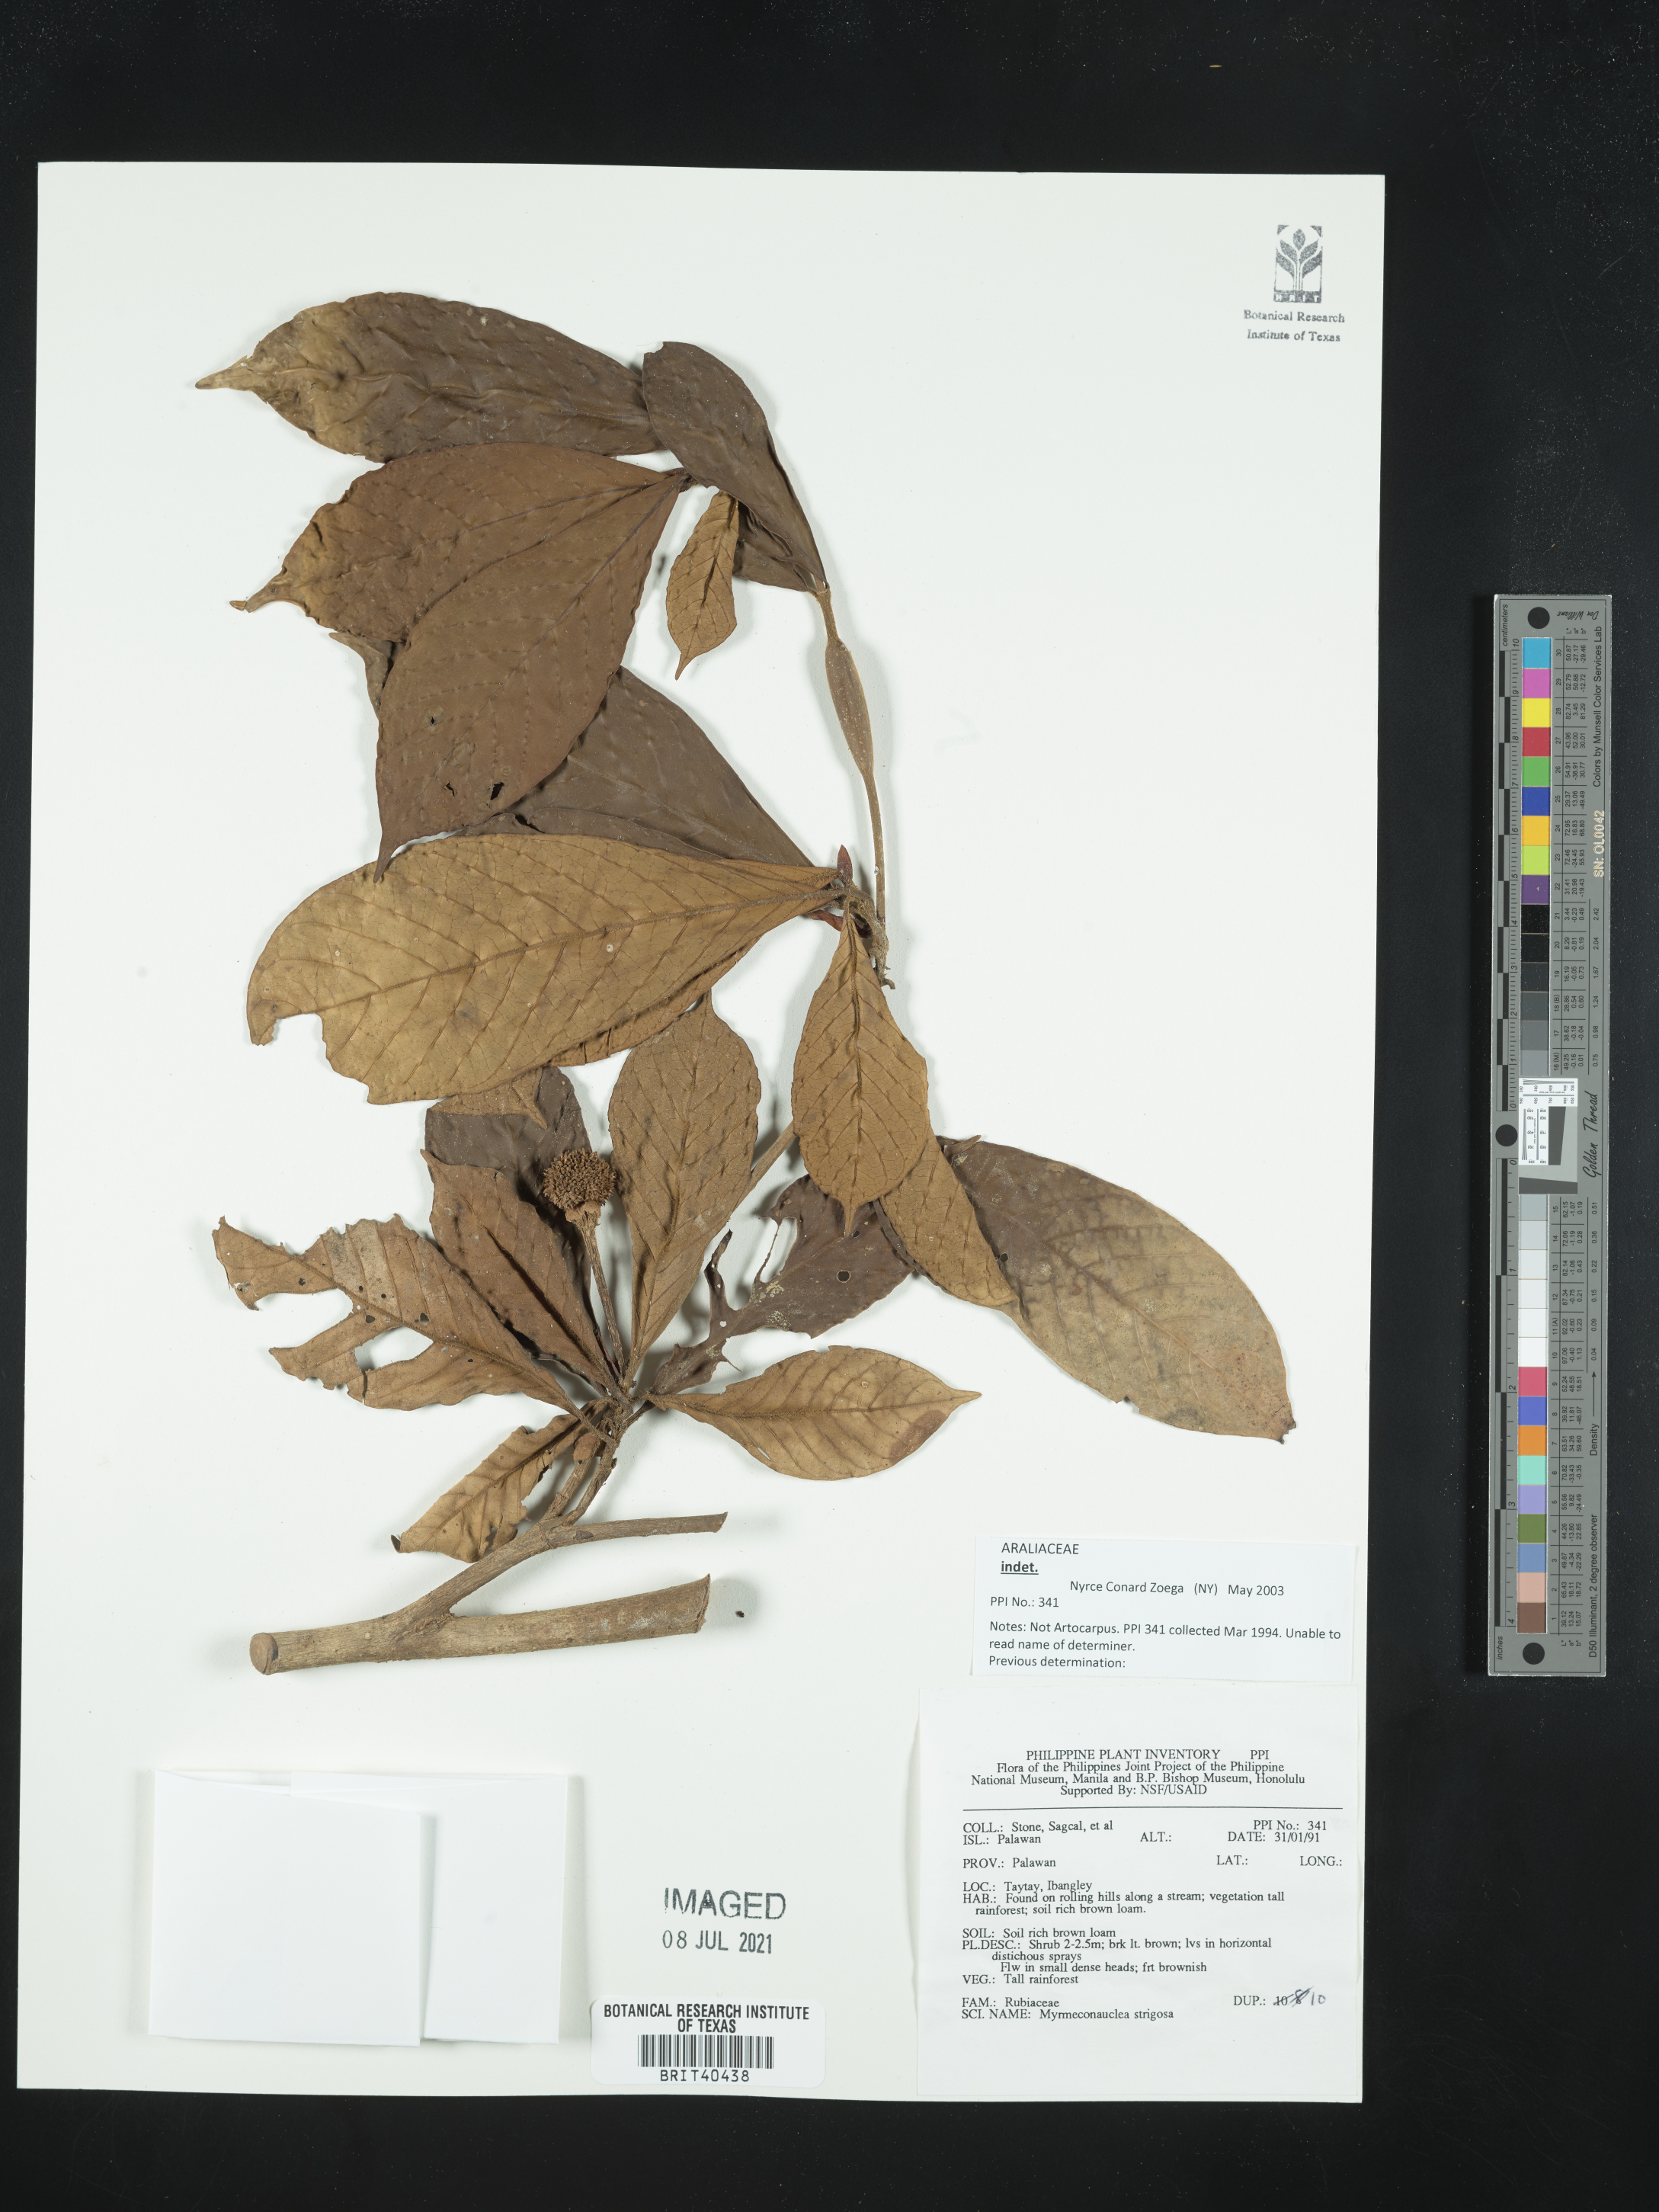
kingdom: Plantae
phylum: Tracheophyta
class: Magnoliopsida
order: Gentianales
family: Rubiaceae
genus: Myrmeconauclea
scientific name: Myrmeconauclea strigosa
